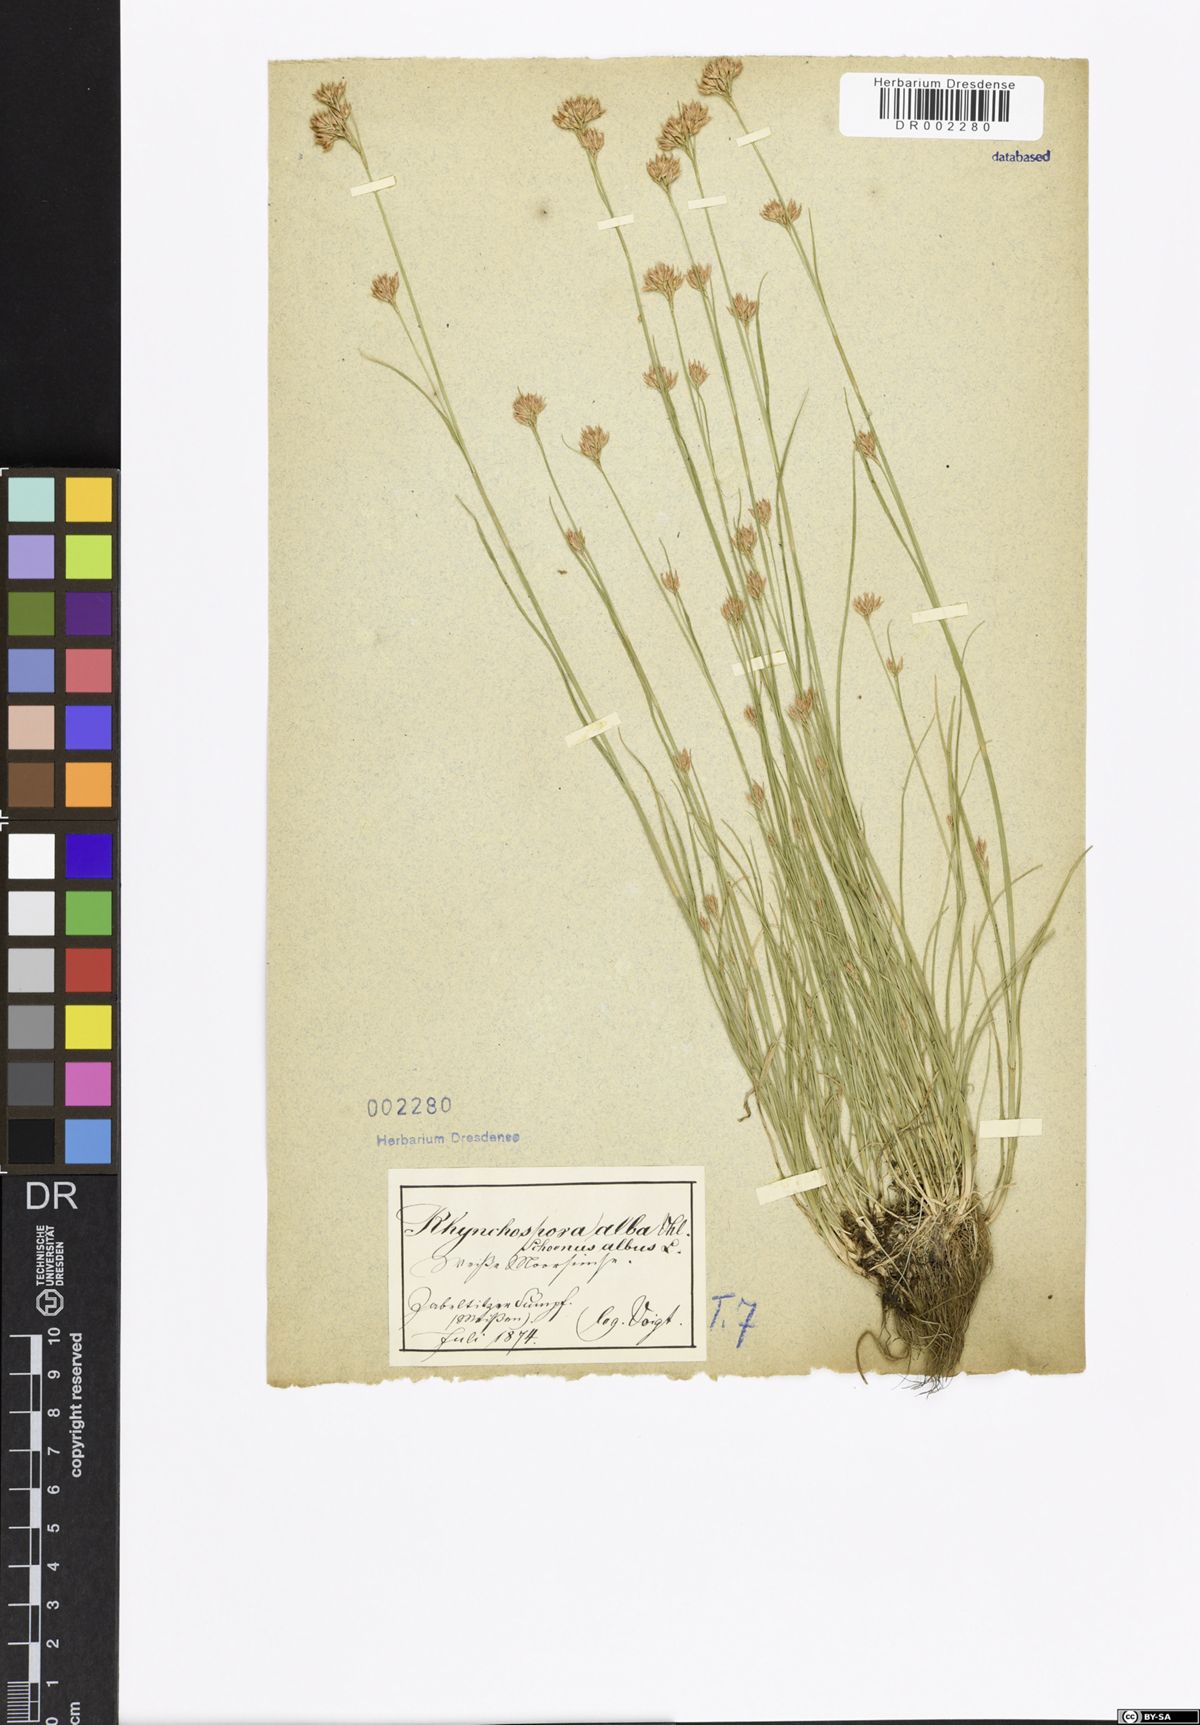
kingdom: Plantae
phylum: Tracheophyta
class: Liliopsida
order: Poales
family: Cyperaceae
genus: Rhynchospora
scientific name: Rhynchospora alba
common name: White beak-sedge
